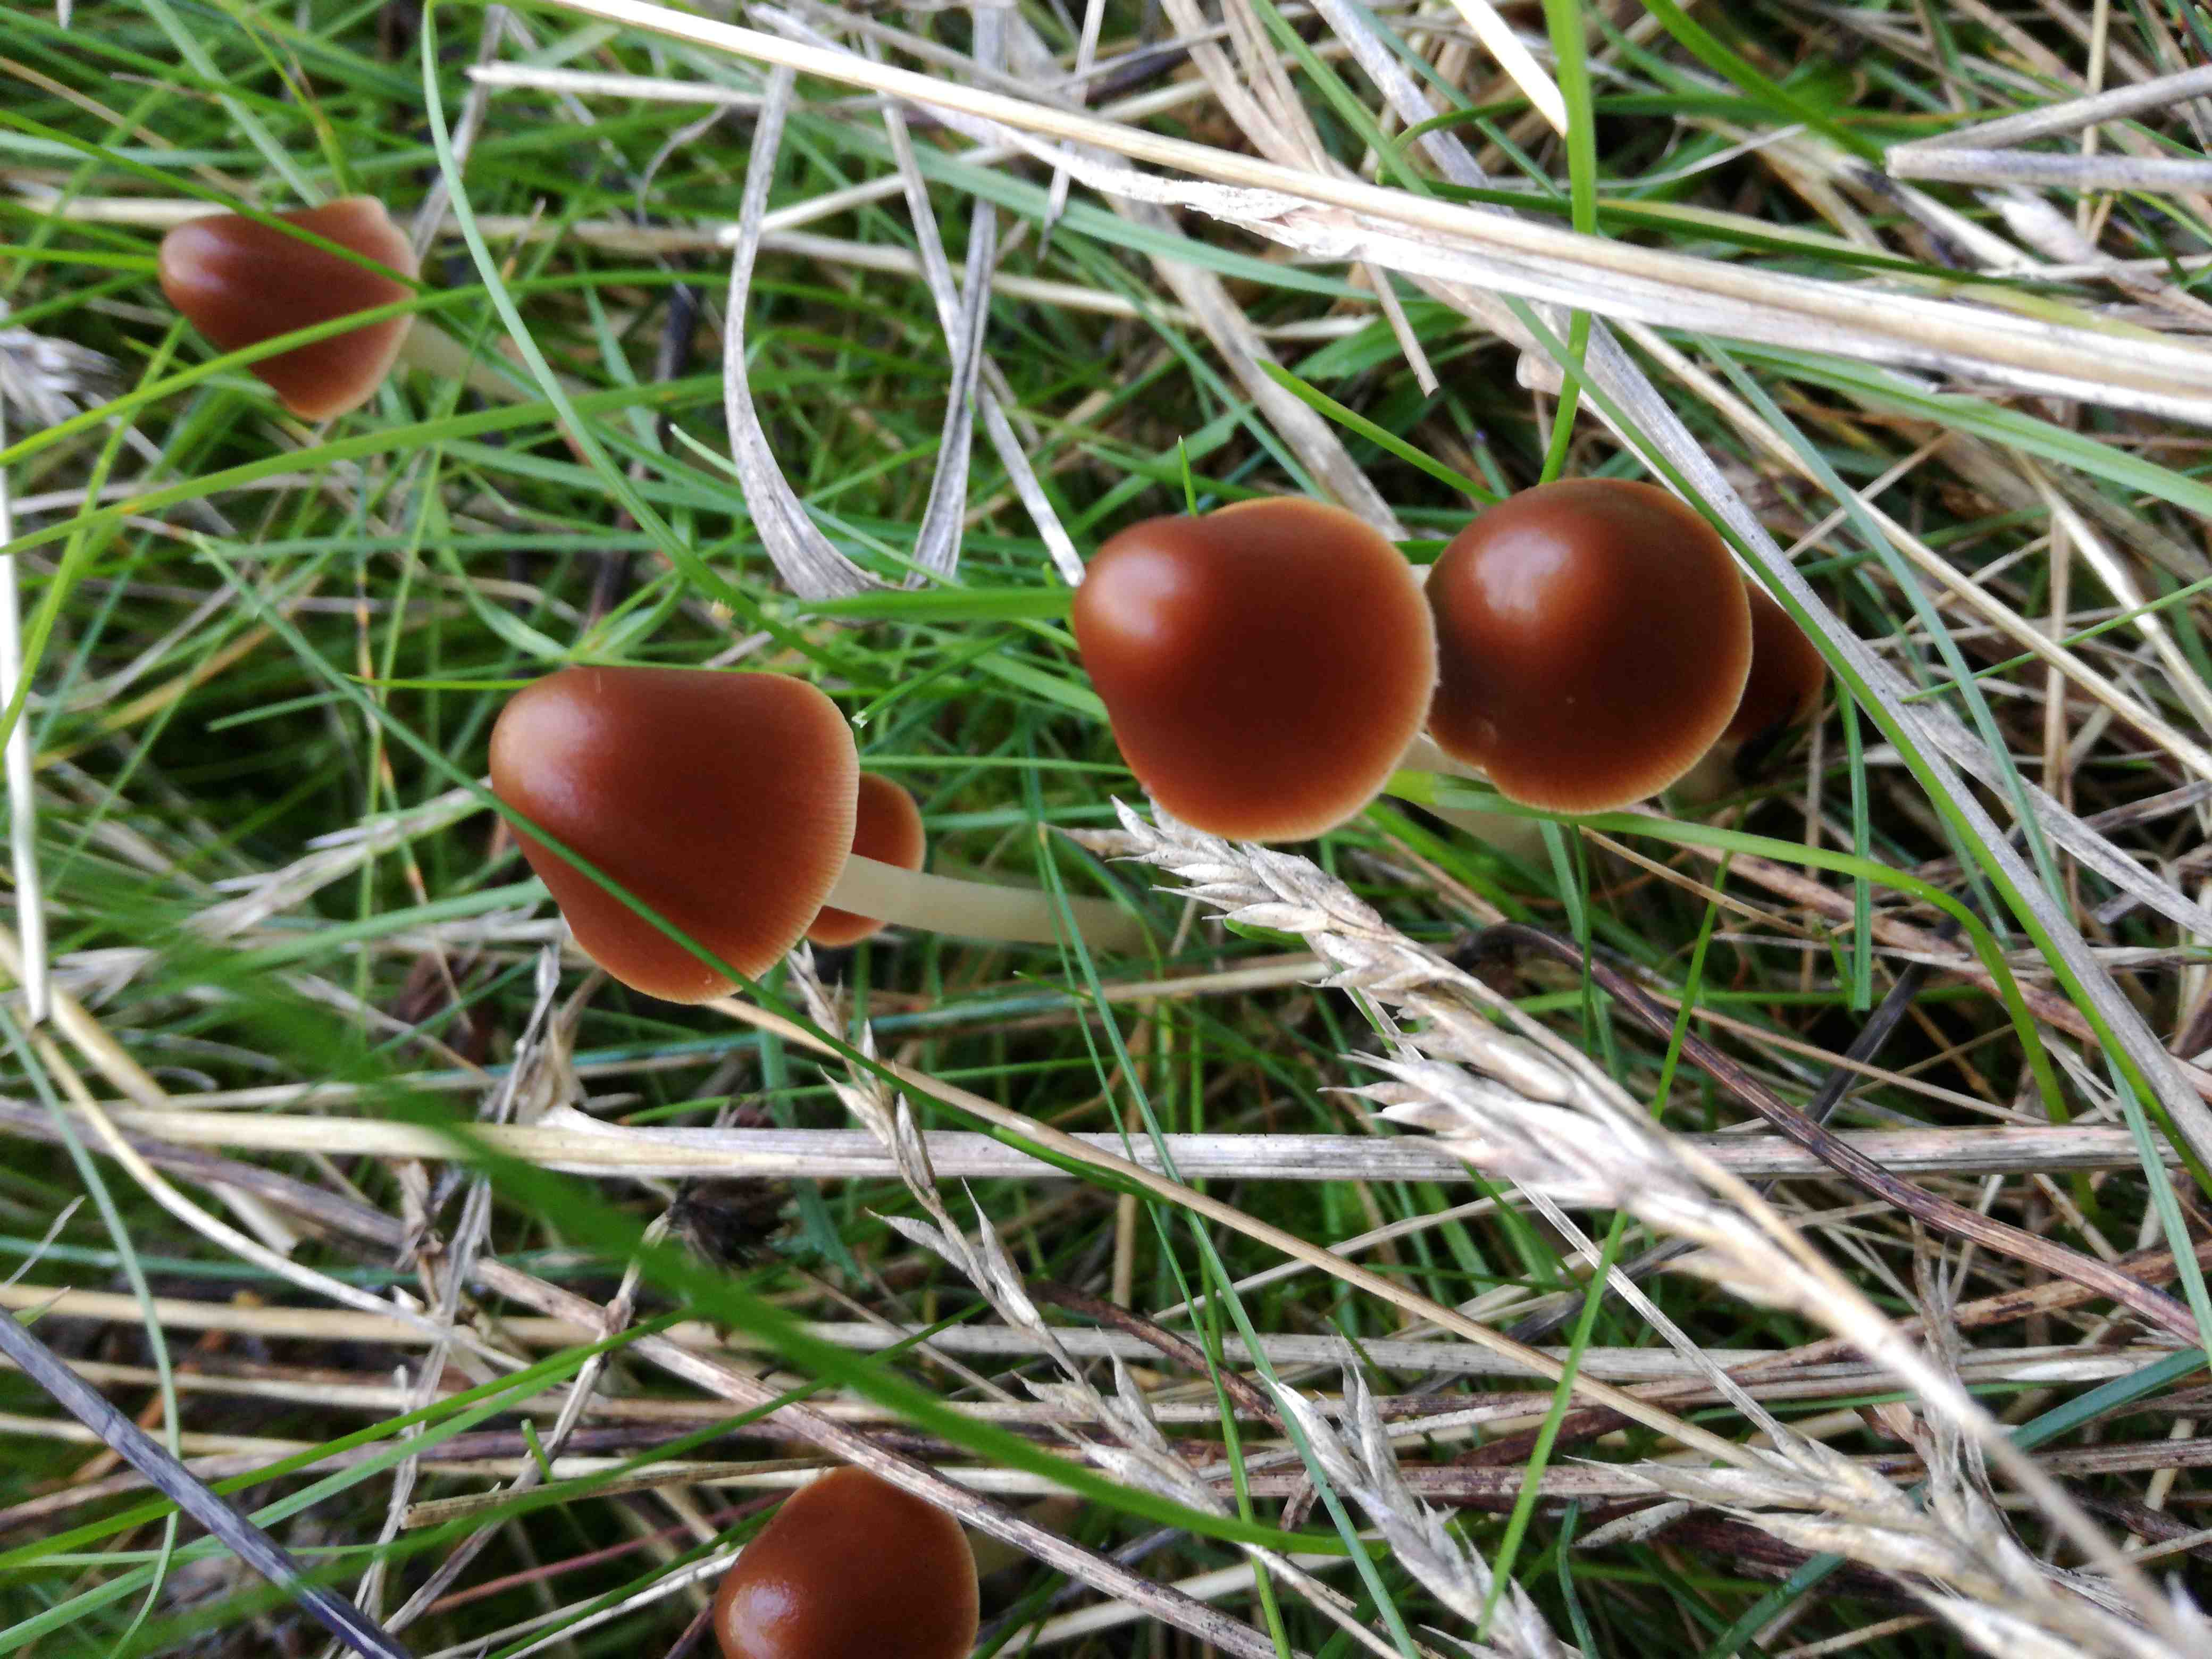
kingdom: Fungi
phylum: Basidiomycota
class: Agaricomycetes
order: Agaricales
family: Psathyrellaceae
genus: Parasola
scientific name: Parasola conopilea
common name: kegle-hjulhat
